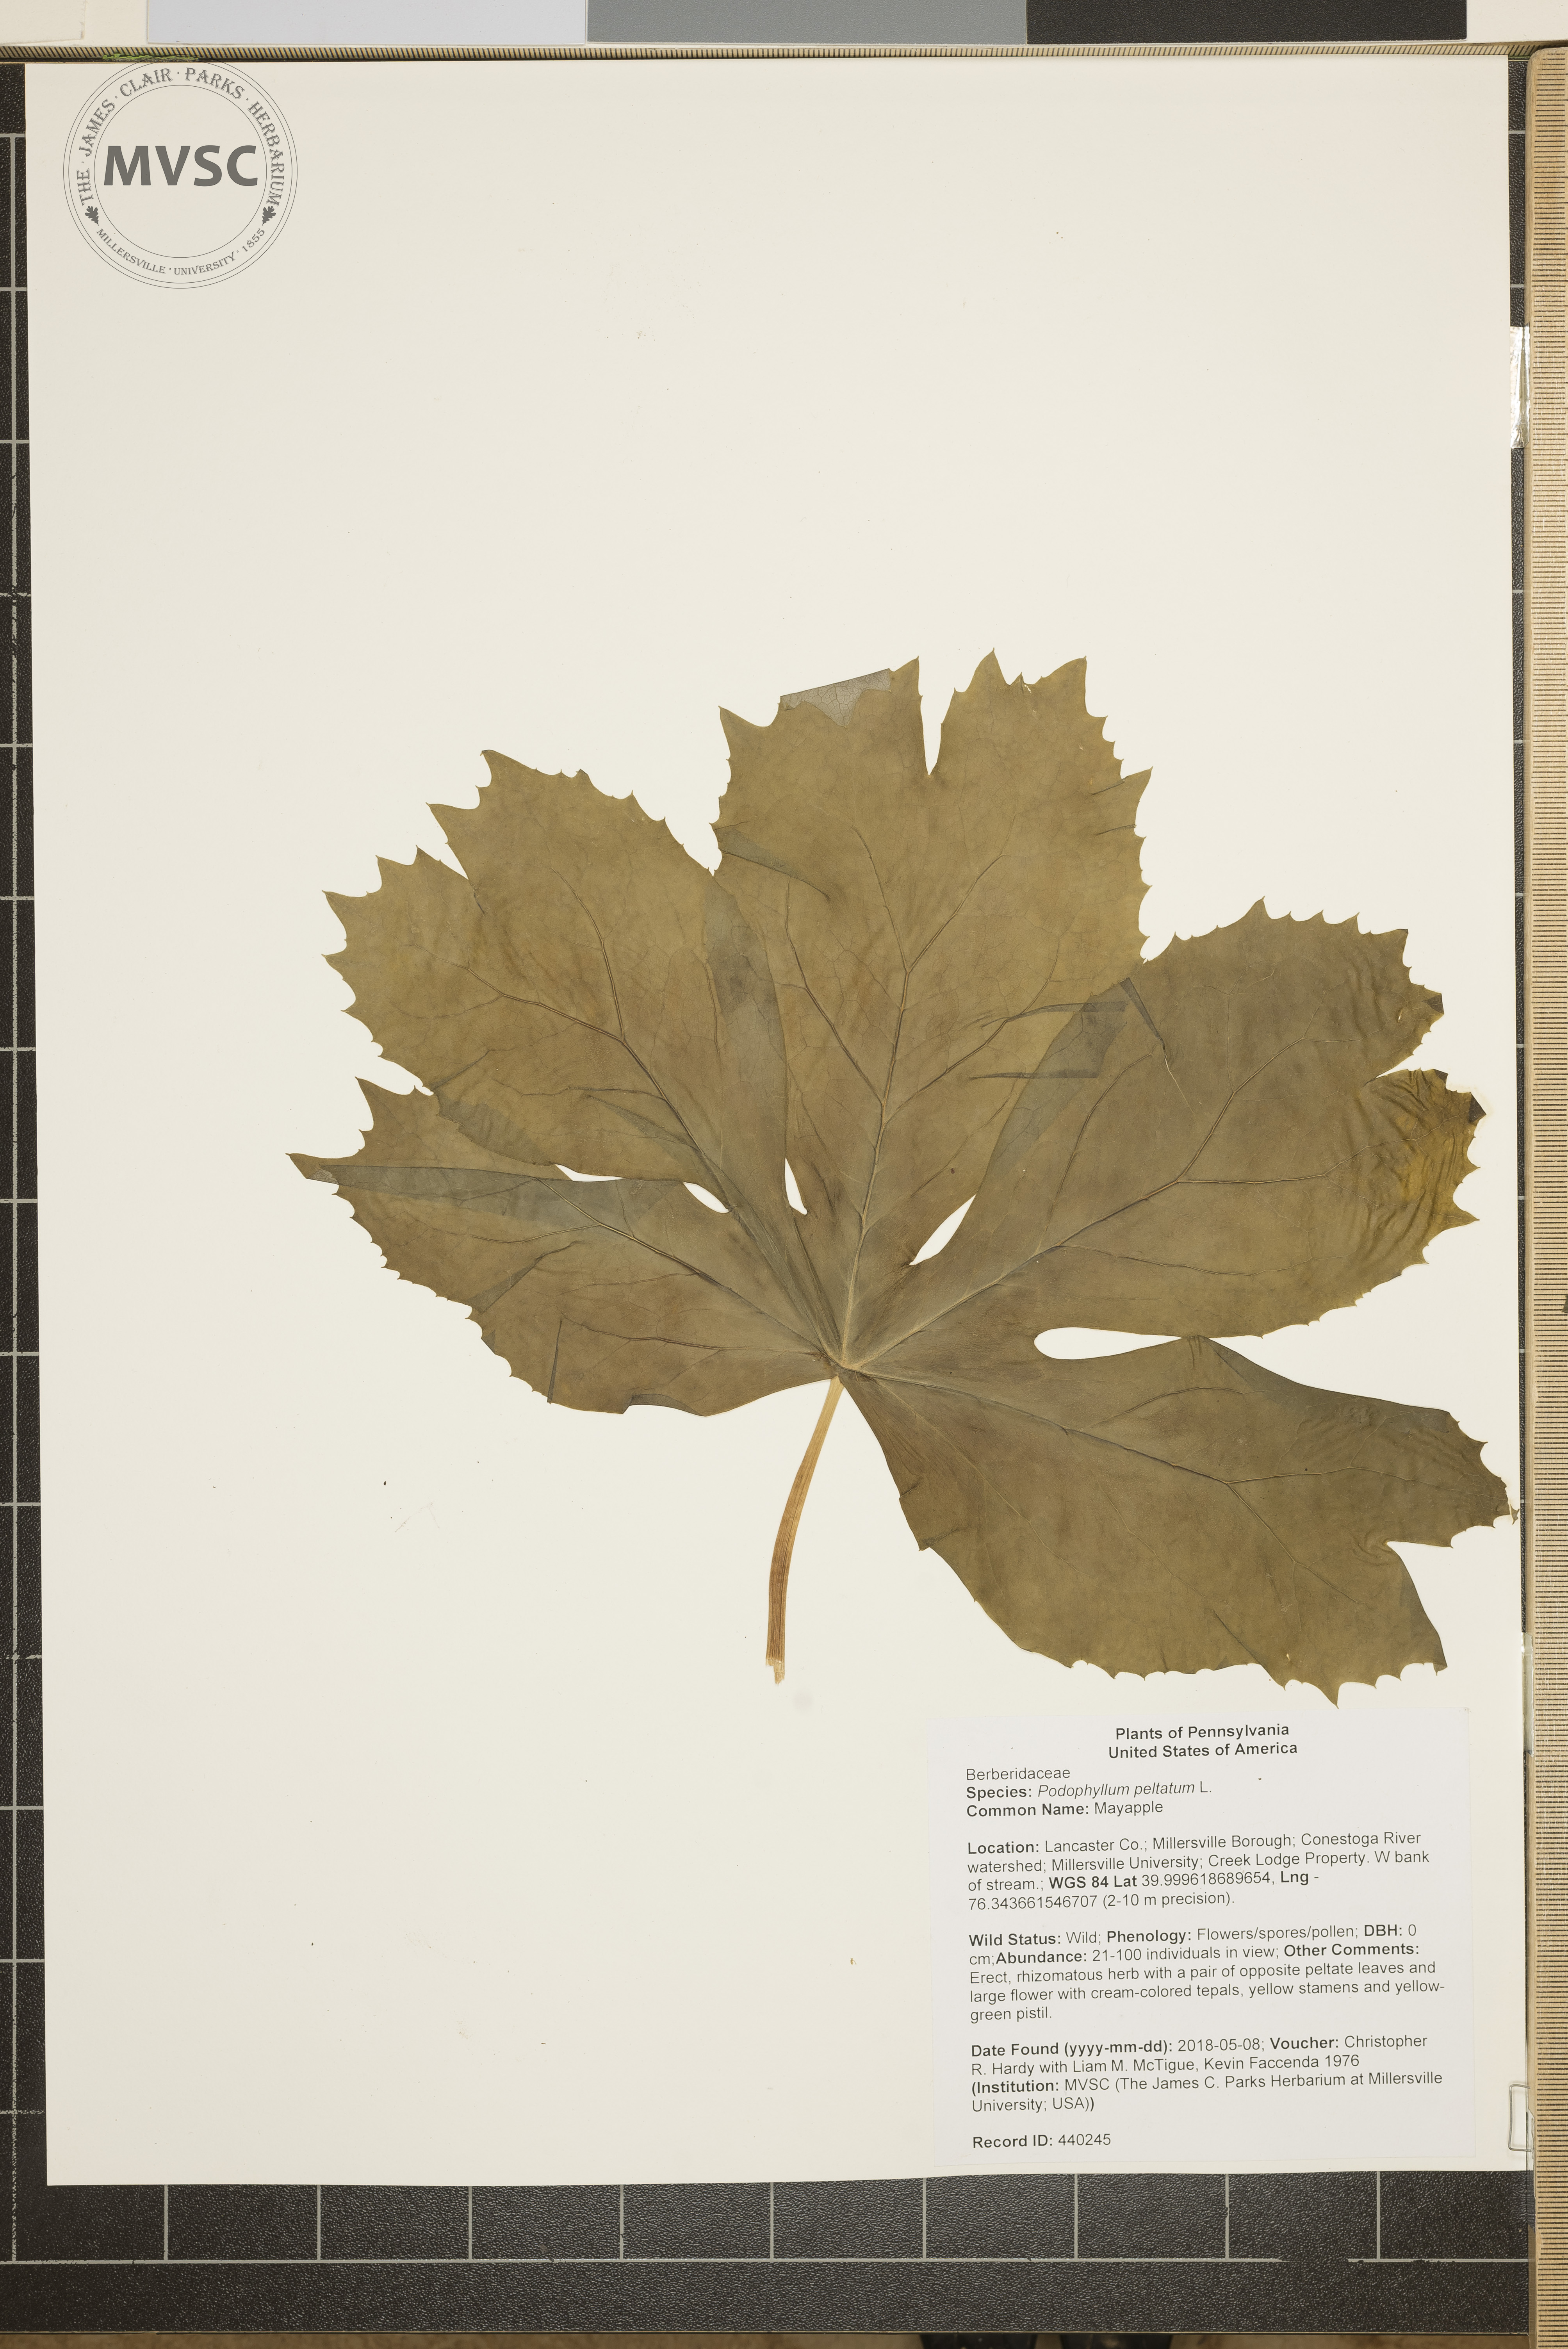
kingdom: Plantae
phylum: Tracheophyta
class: Magnoliopsida
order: Ranunculales
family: Berberidaceae
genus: Podophyllum
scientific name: Podophyllum peltatum
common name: Mayapple
